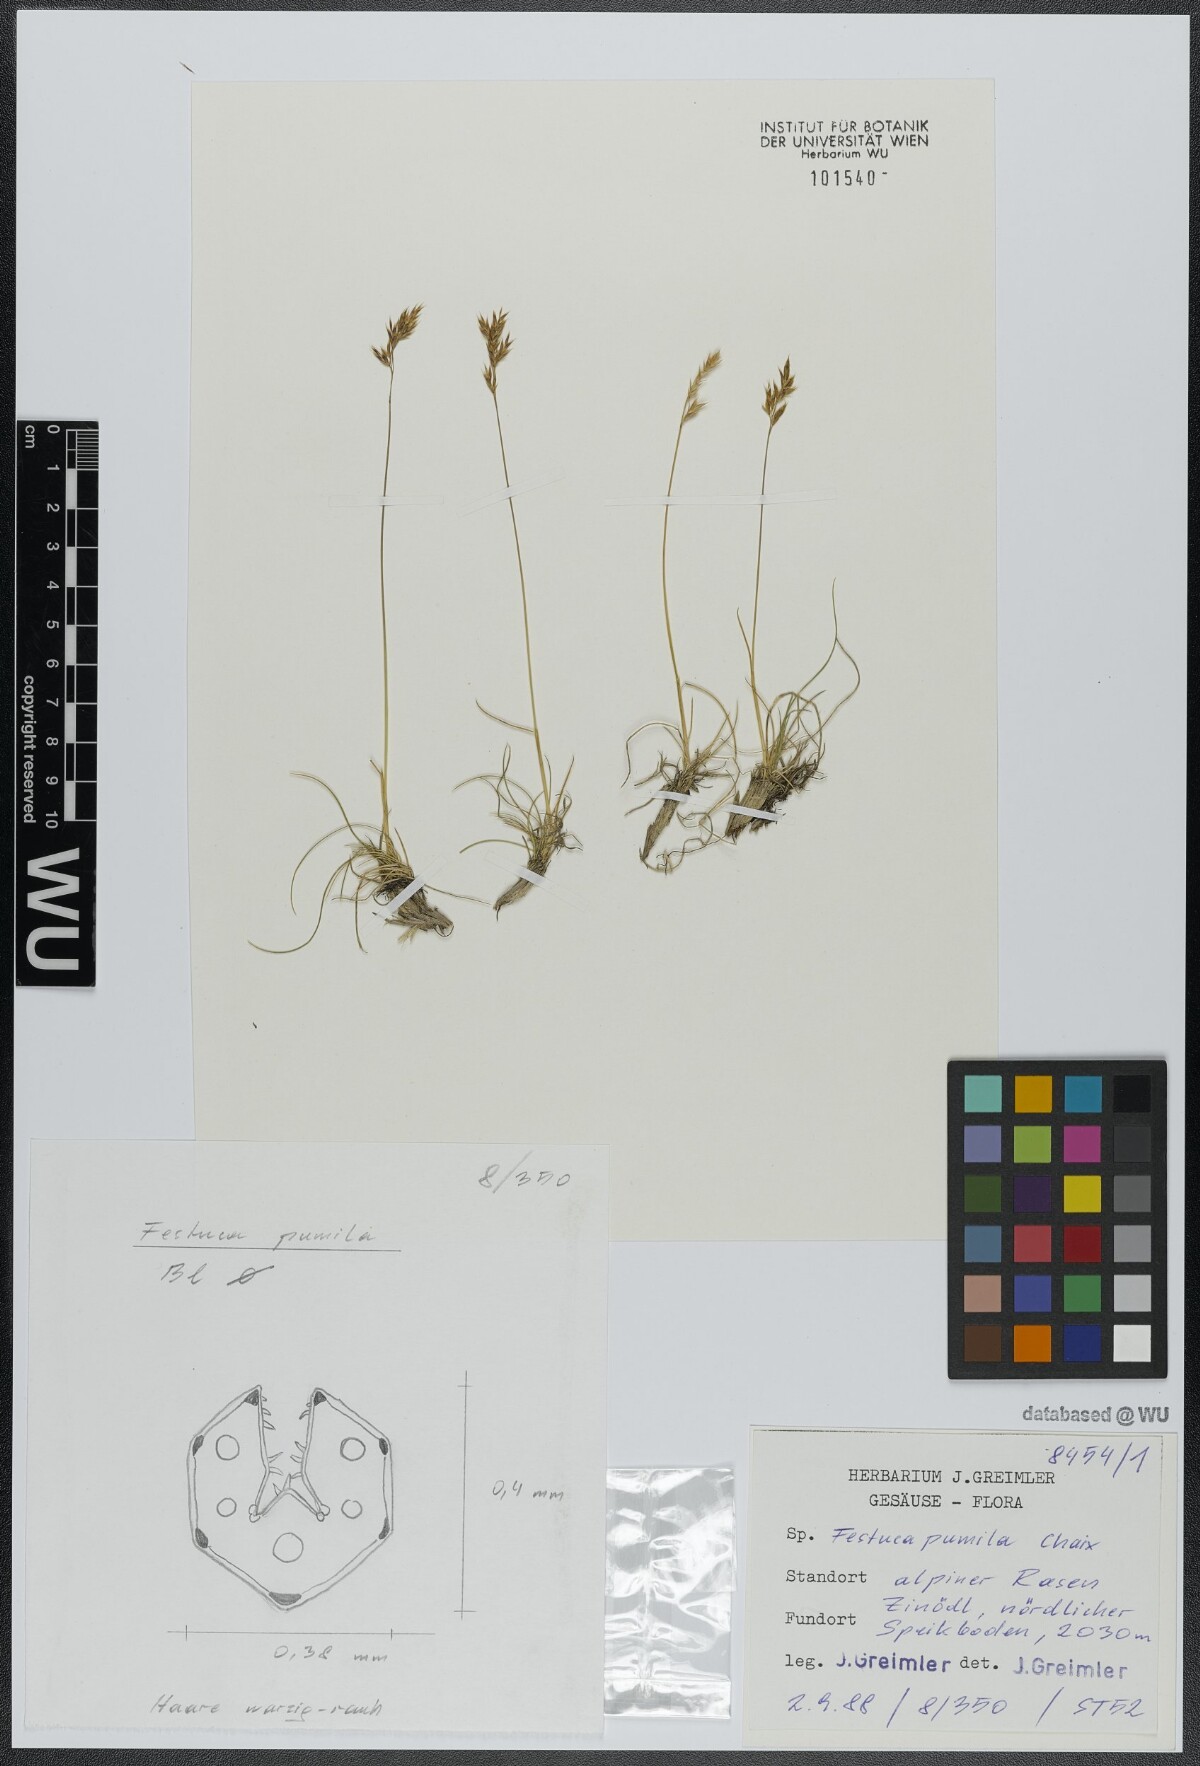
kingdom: Plantae
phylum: Tracheophyta
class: Liliopsida
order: Poales
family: Poaceae
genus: Festuca
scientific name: Festuca quadriflora
